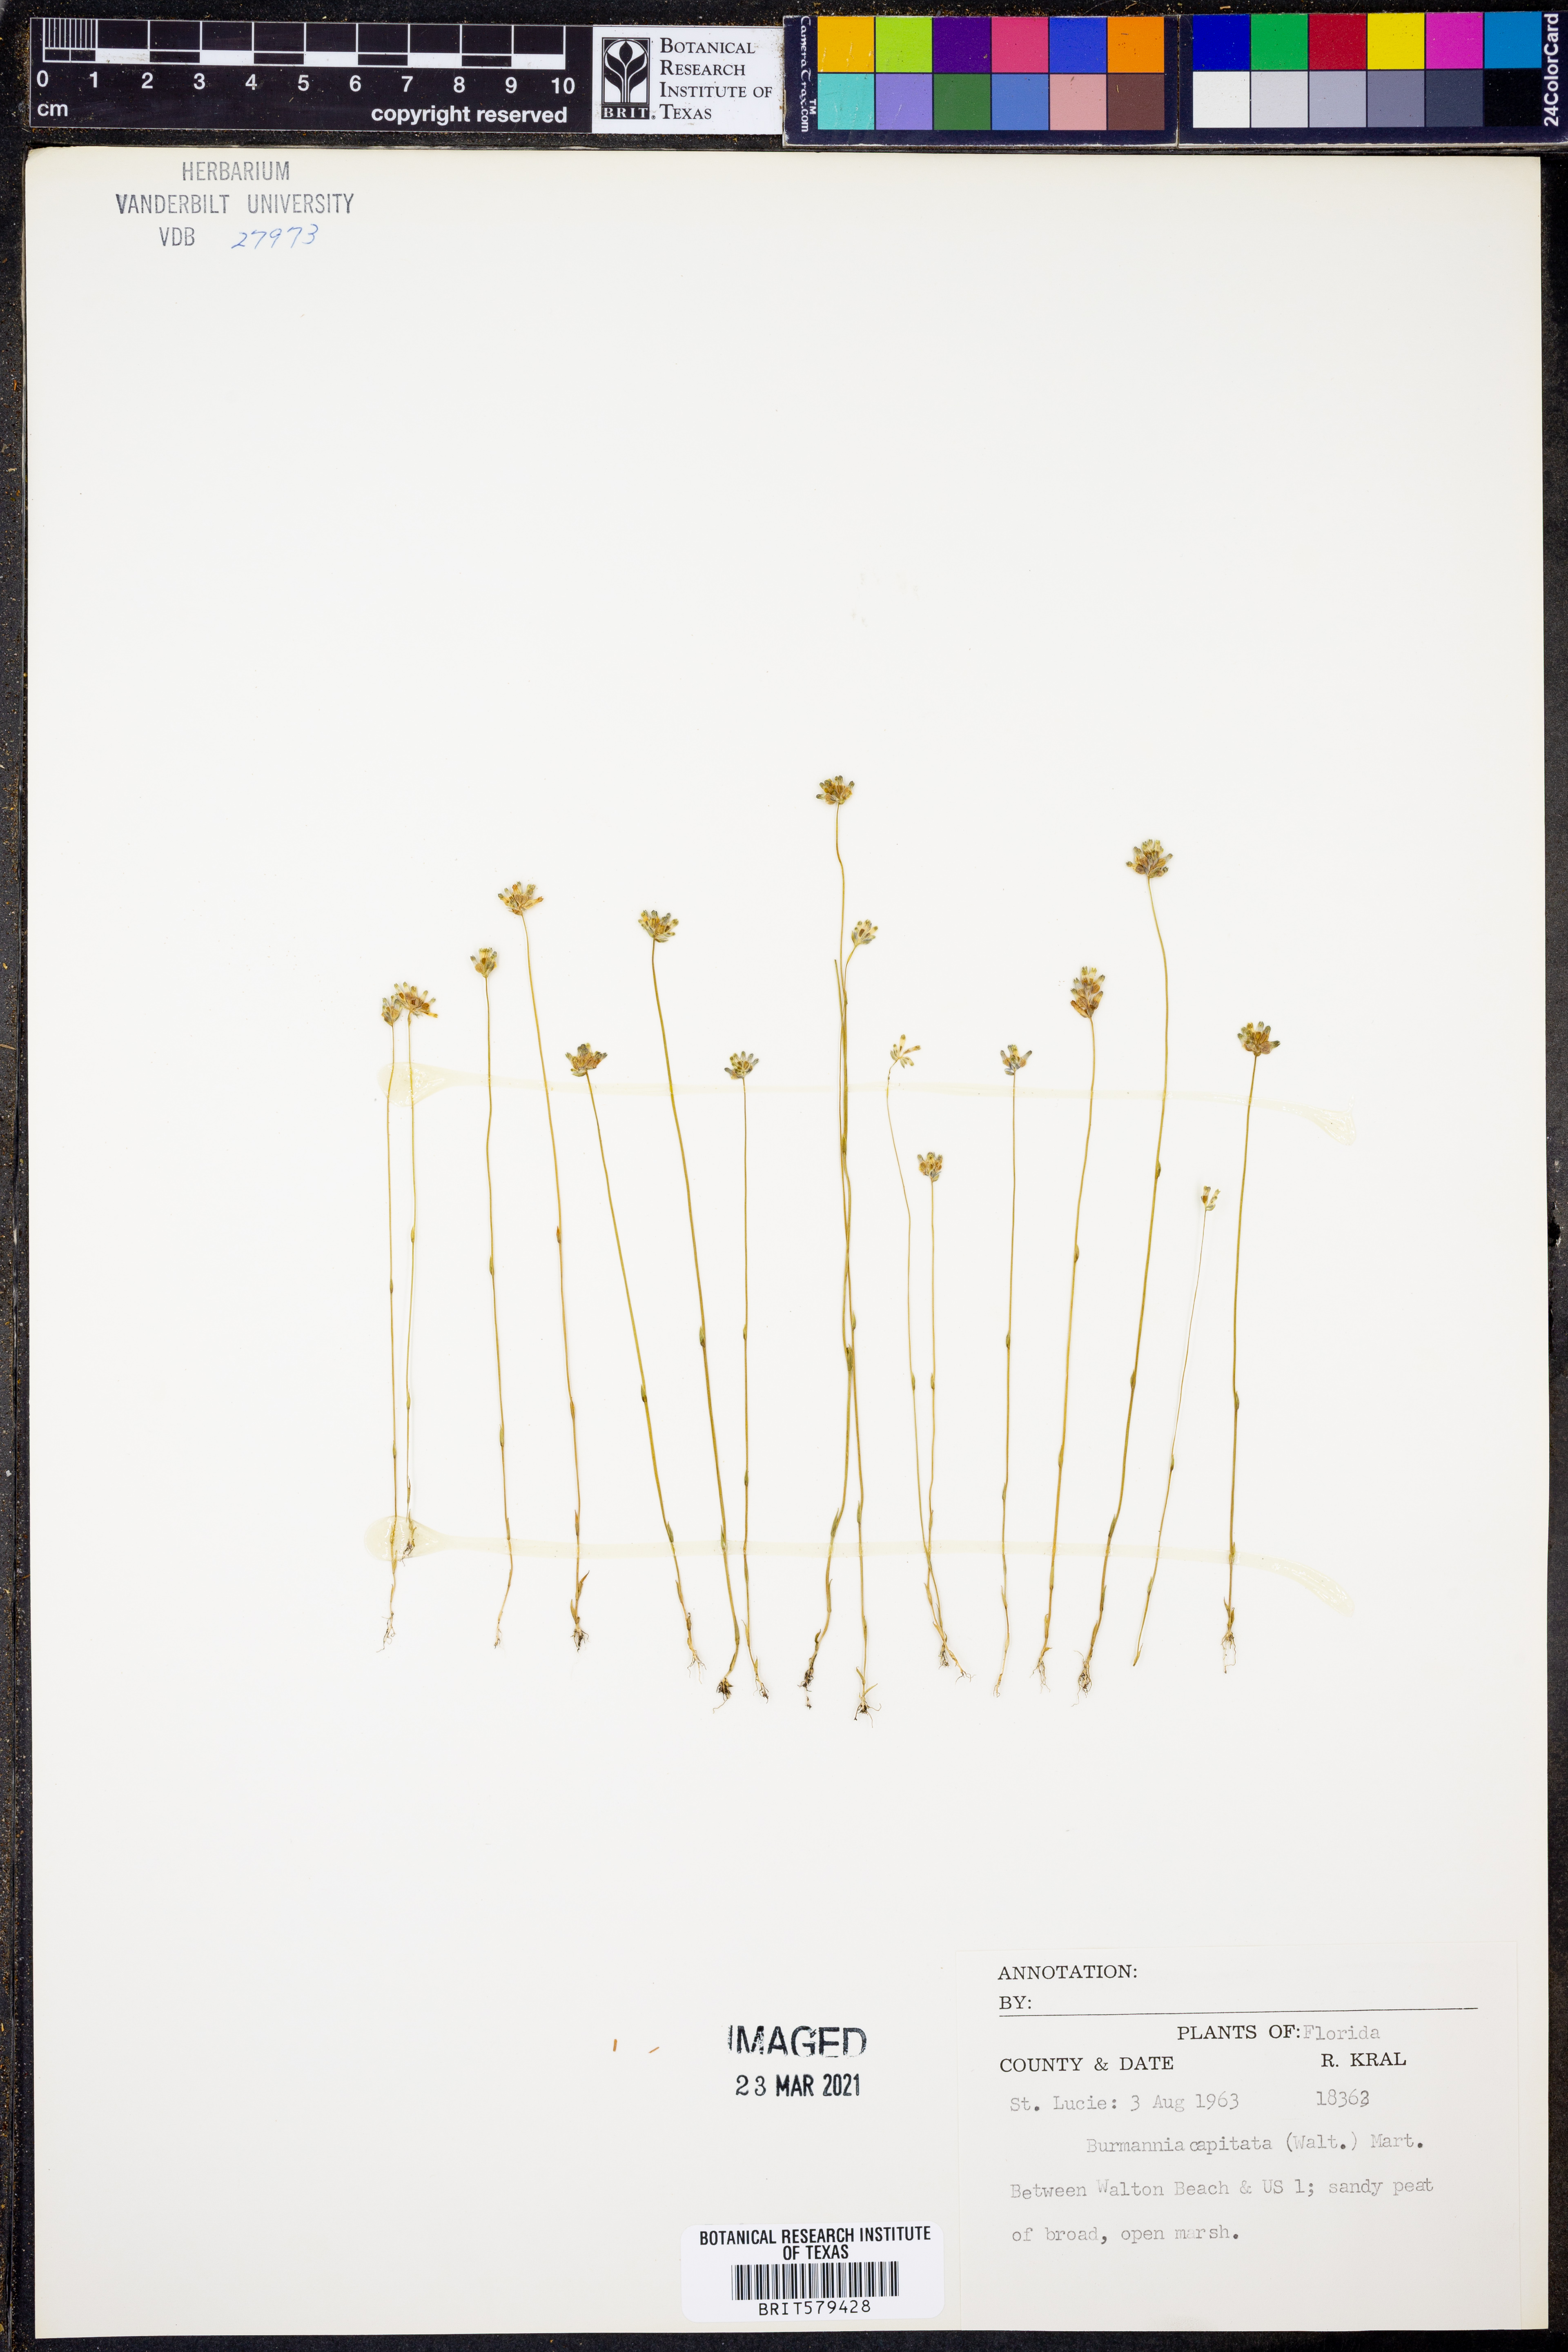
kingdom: Plantae
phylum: Tracheophyta
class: Liliopsida
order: Dioscoreales
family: Burmanniaceae
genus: Burmannia
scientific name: Burmannia capitata
